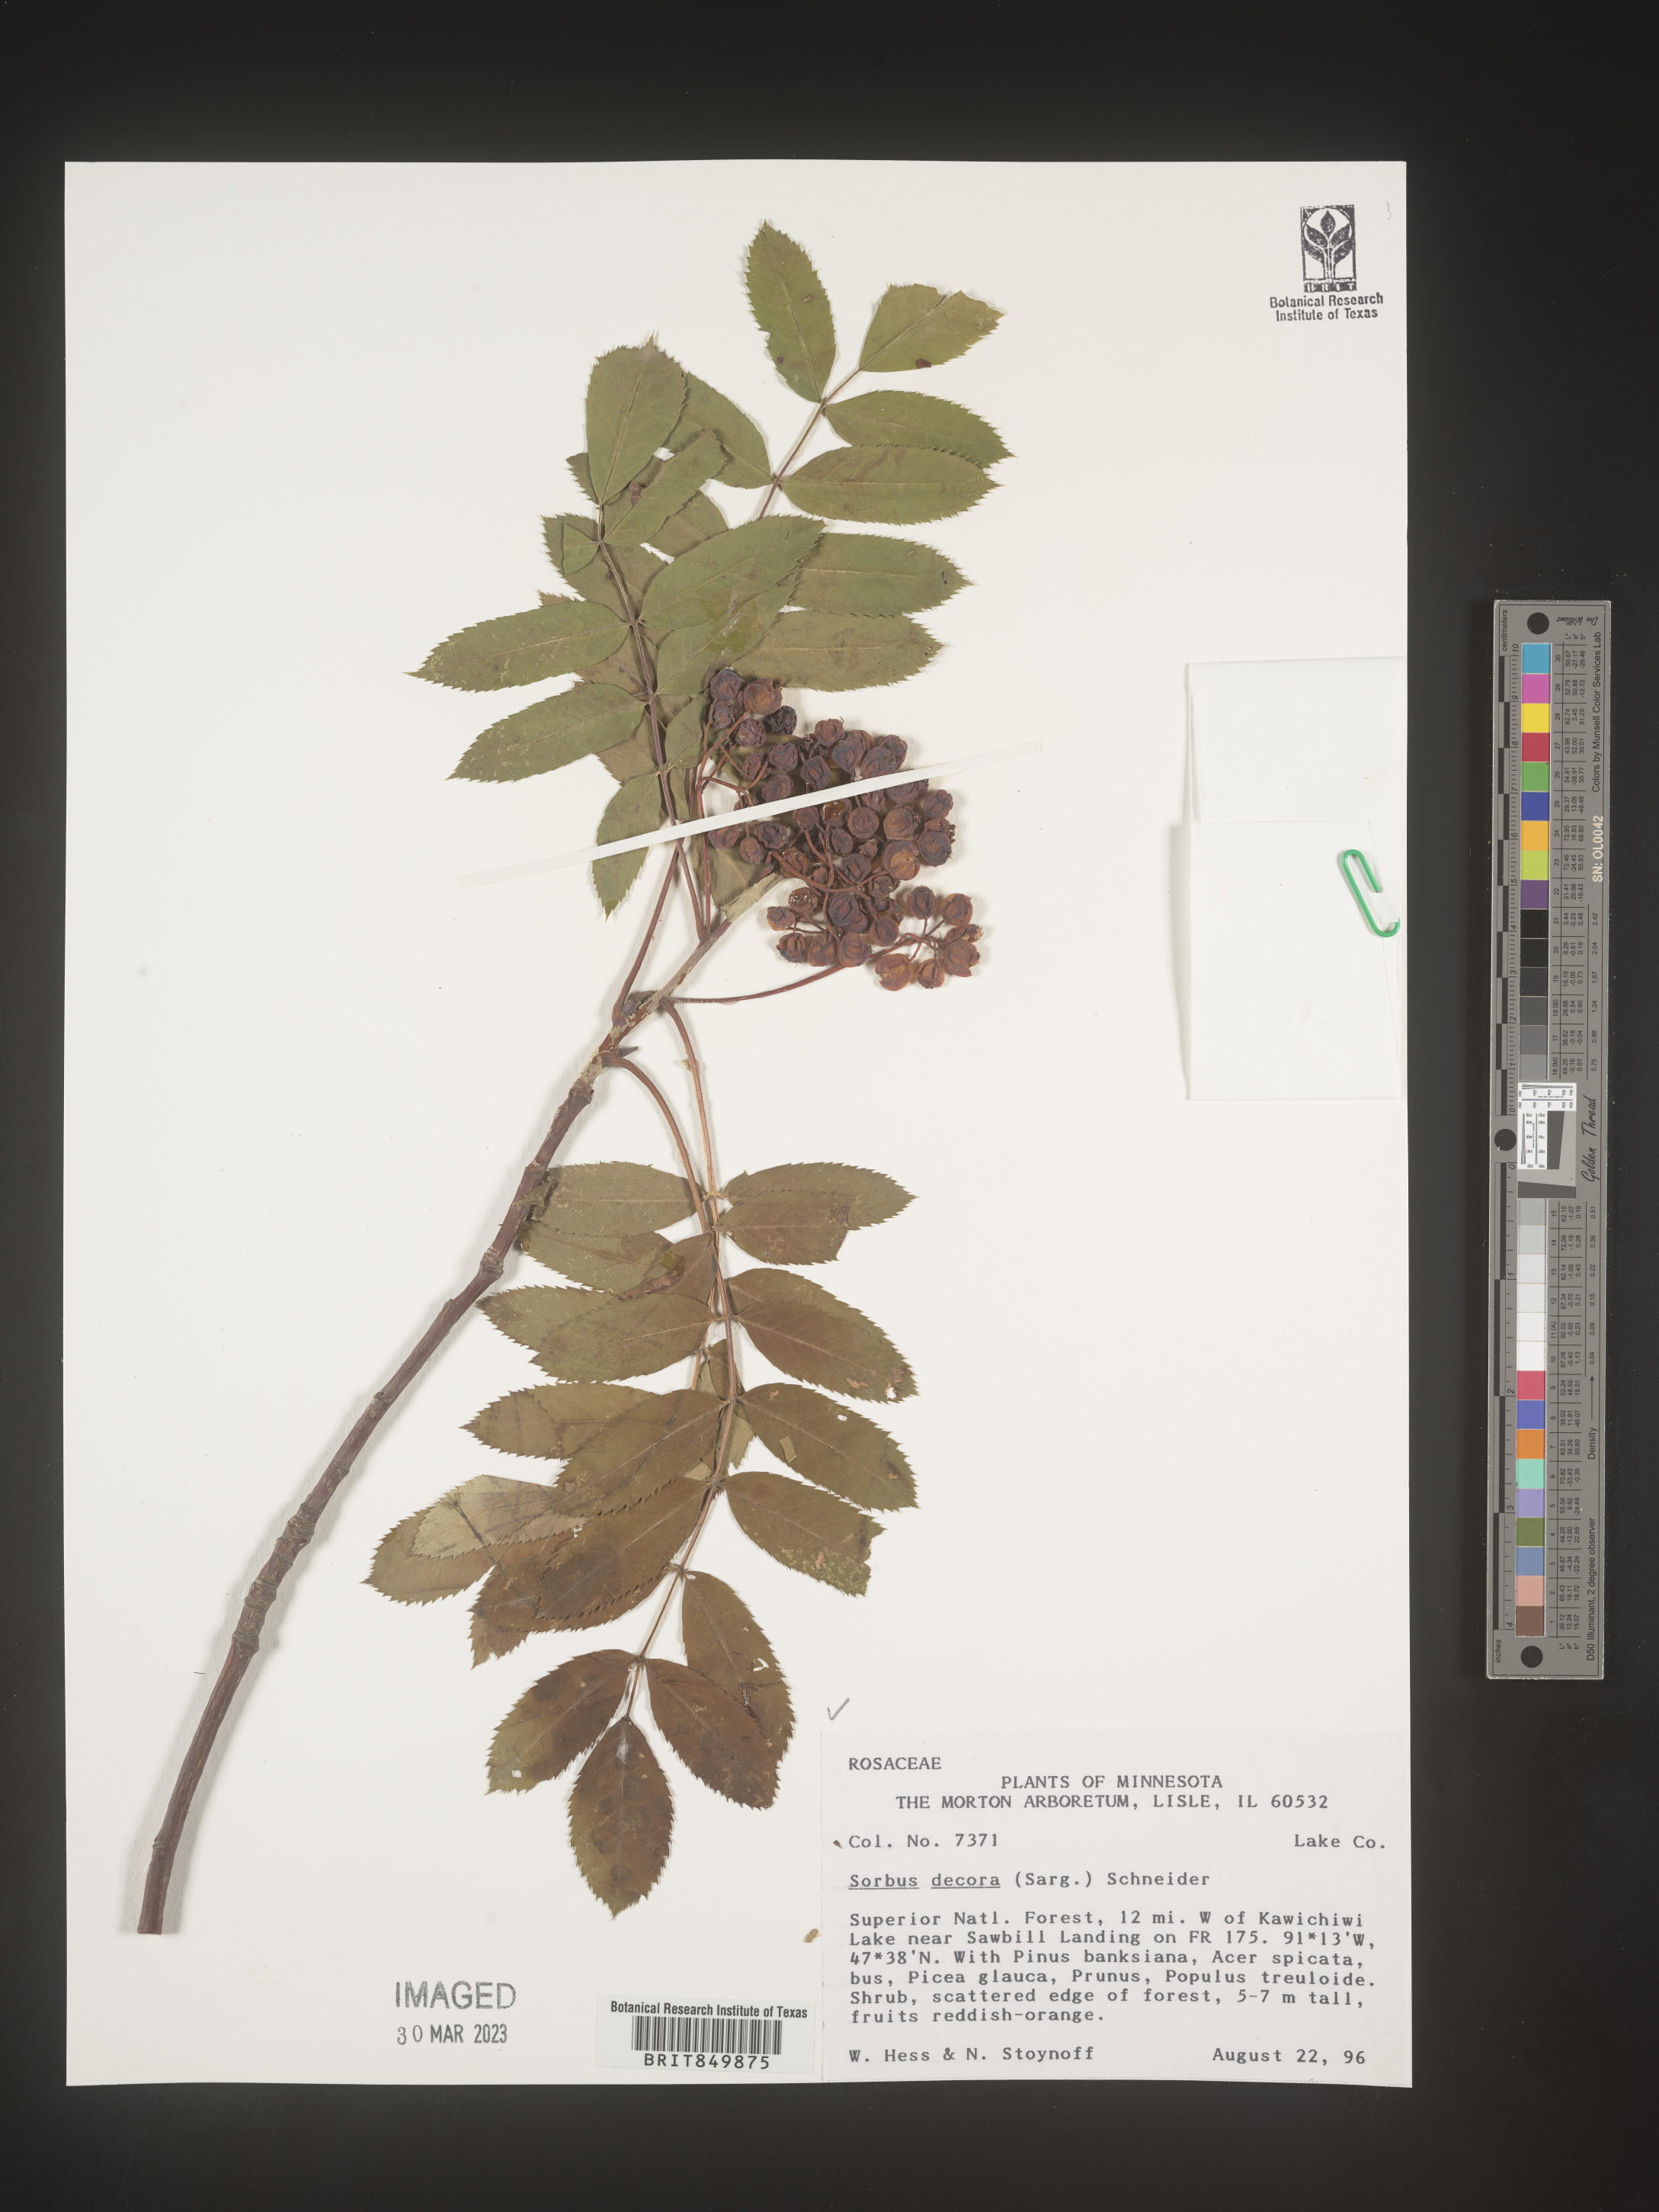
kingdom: Plantae
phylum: Tracheophyta
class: Magnoliopsida
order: Rosales
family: Rosaceae
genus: Sorbus
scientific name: Sorbus
